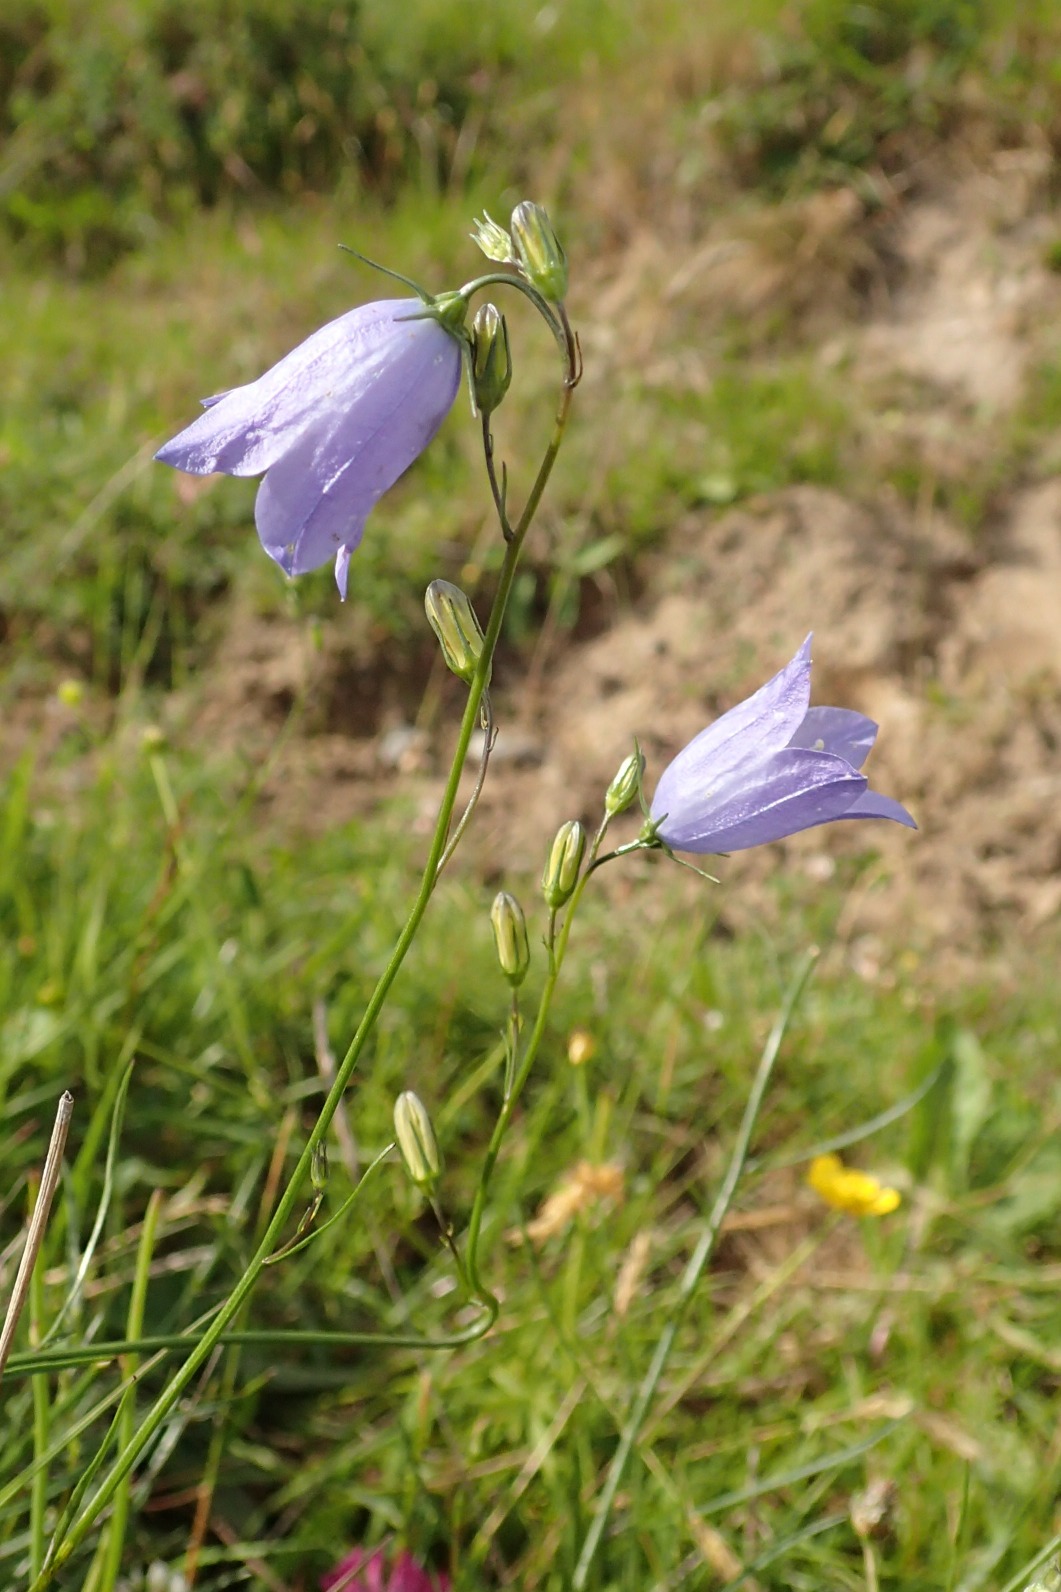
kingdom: Plantae
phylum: Tracheophyta
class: Magnoliopsida
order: Asterales
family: Campanulaceae
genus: Campanula
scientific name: Campanula rotundifolia
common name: Liden klokke
